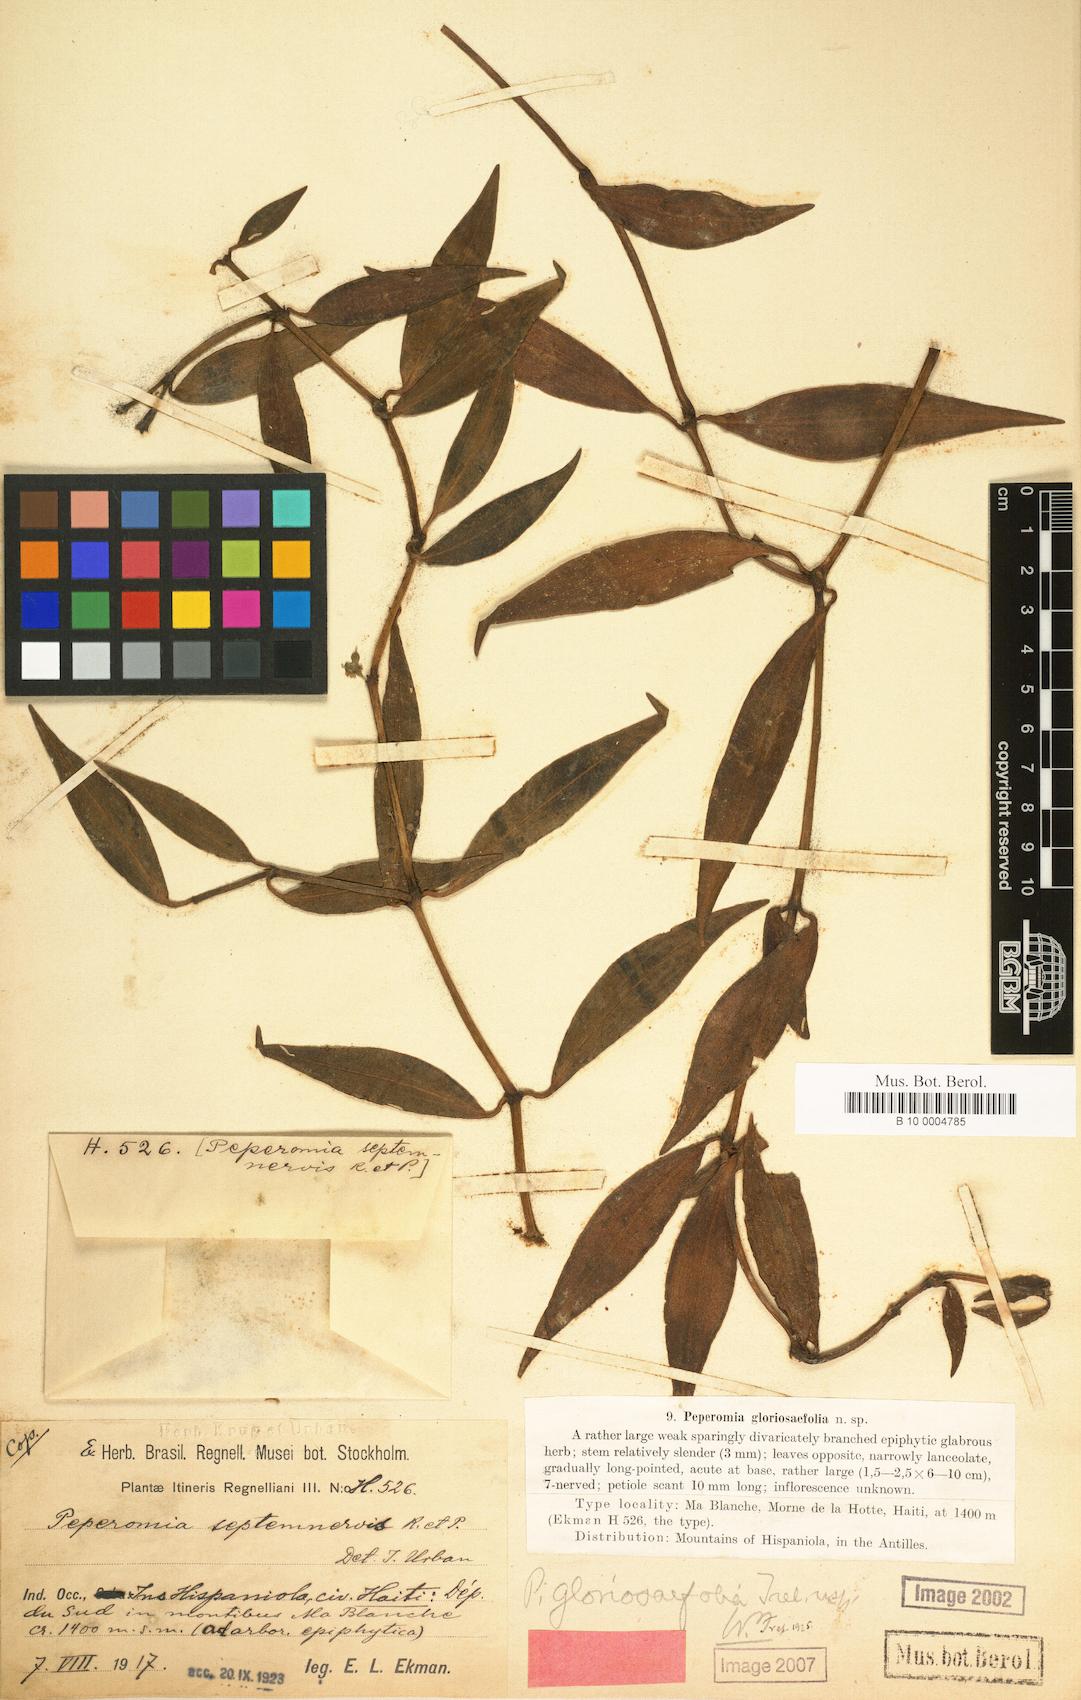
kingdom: Plantae
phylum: Tracheophyta
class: Magnoliopsida
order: Piperales
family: Piperaceae
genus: Peperomia
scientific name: Peperomia dominicana
